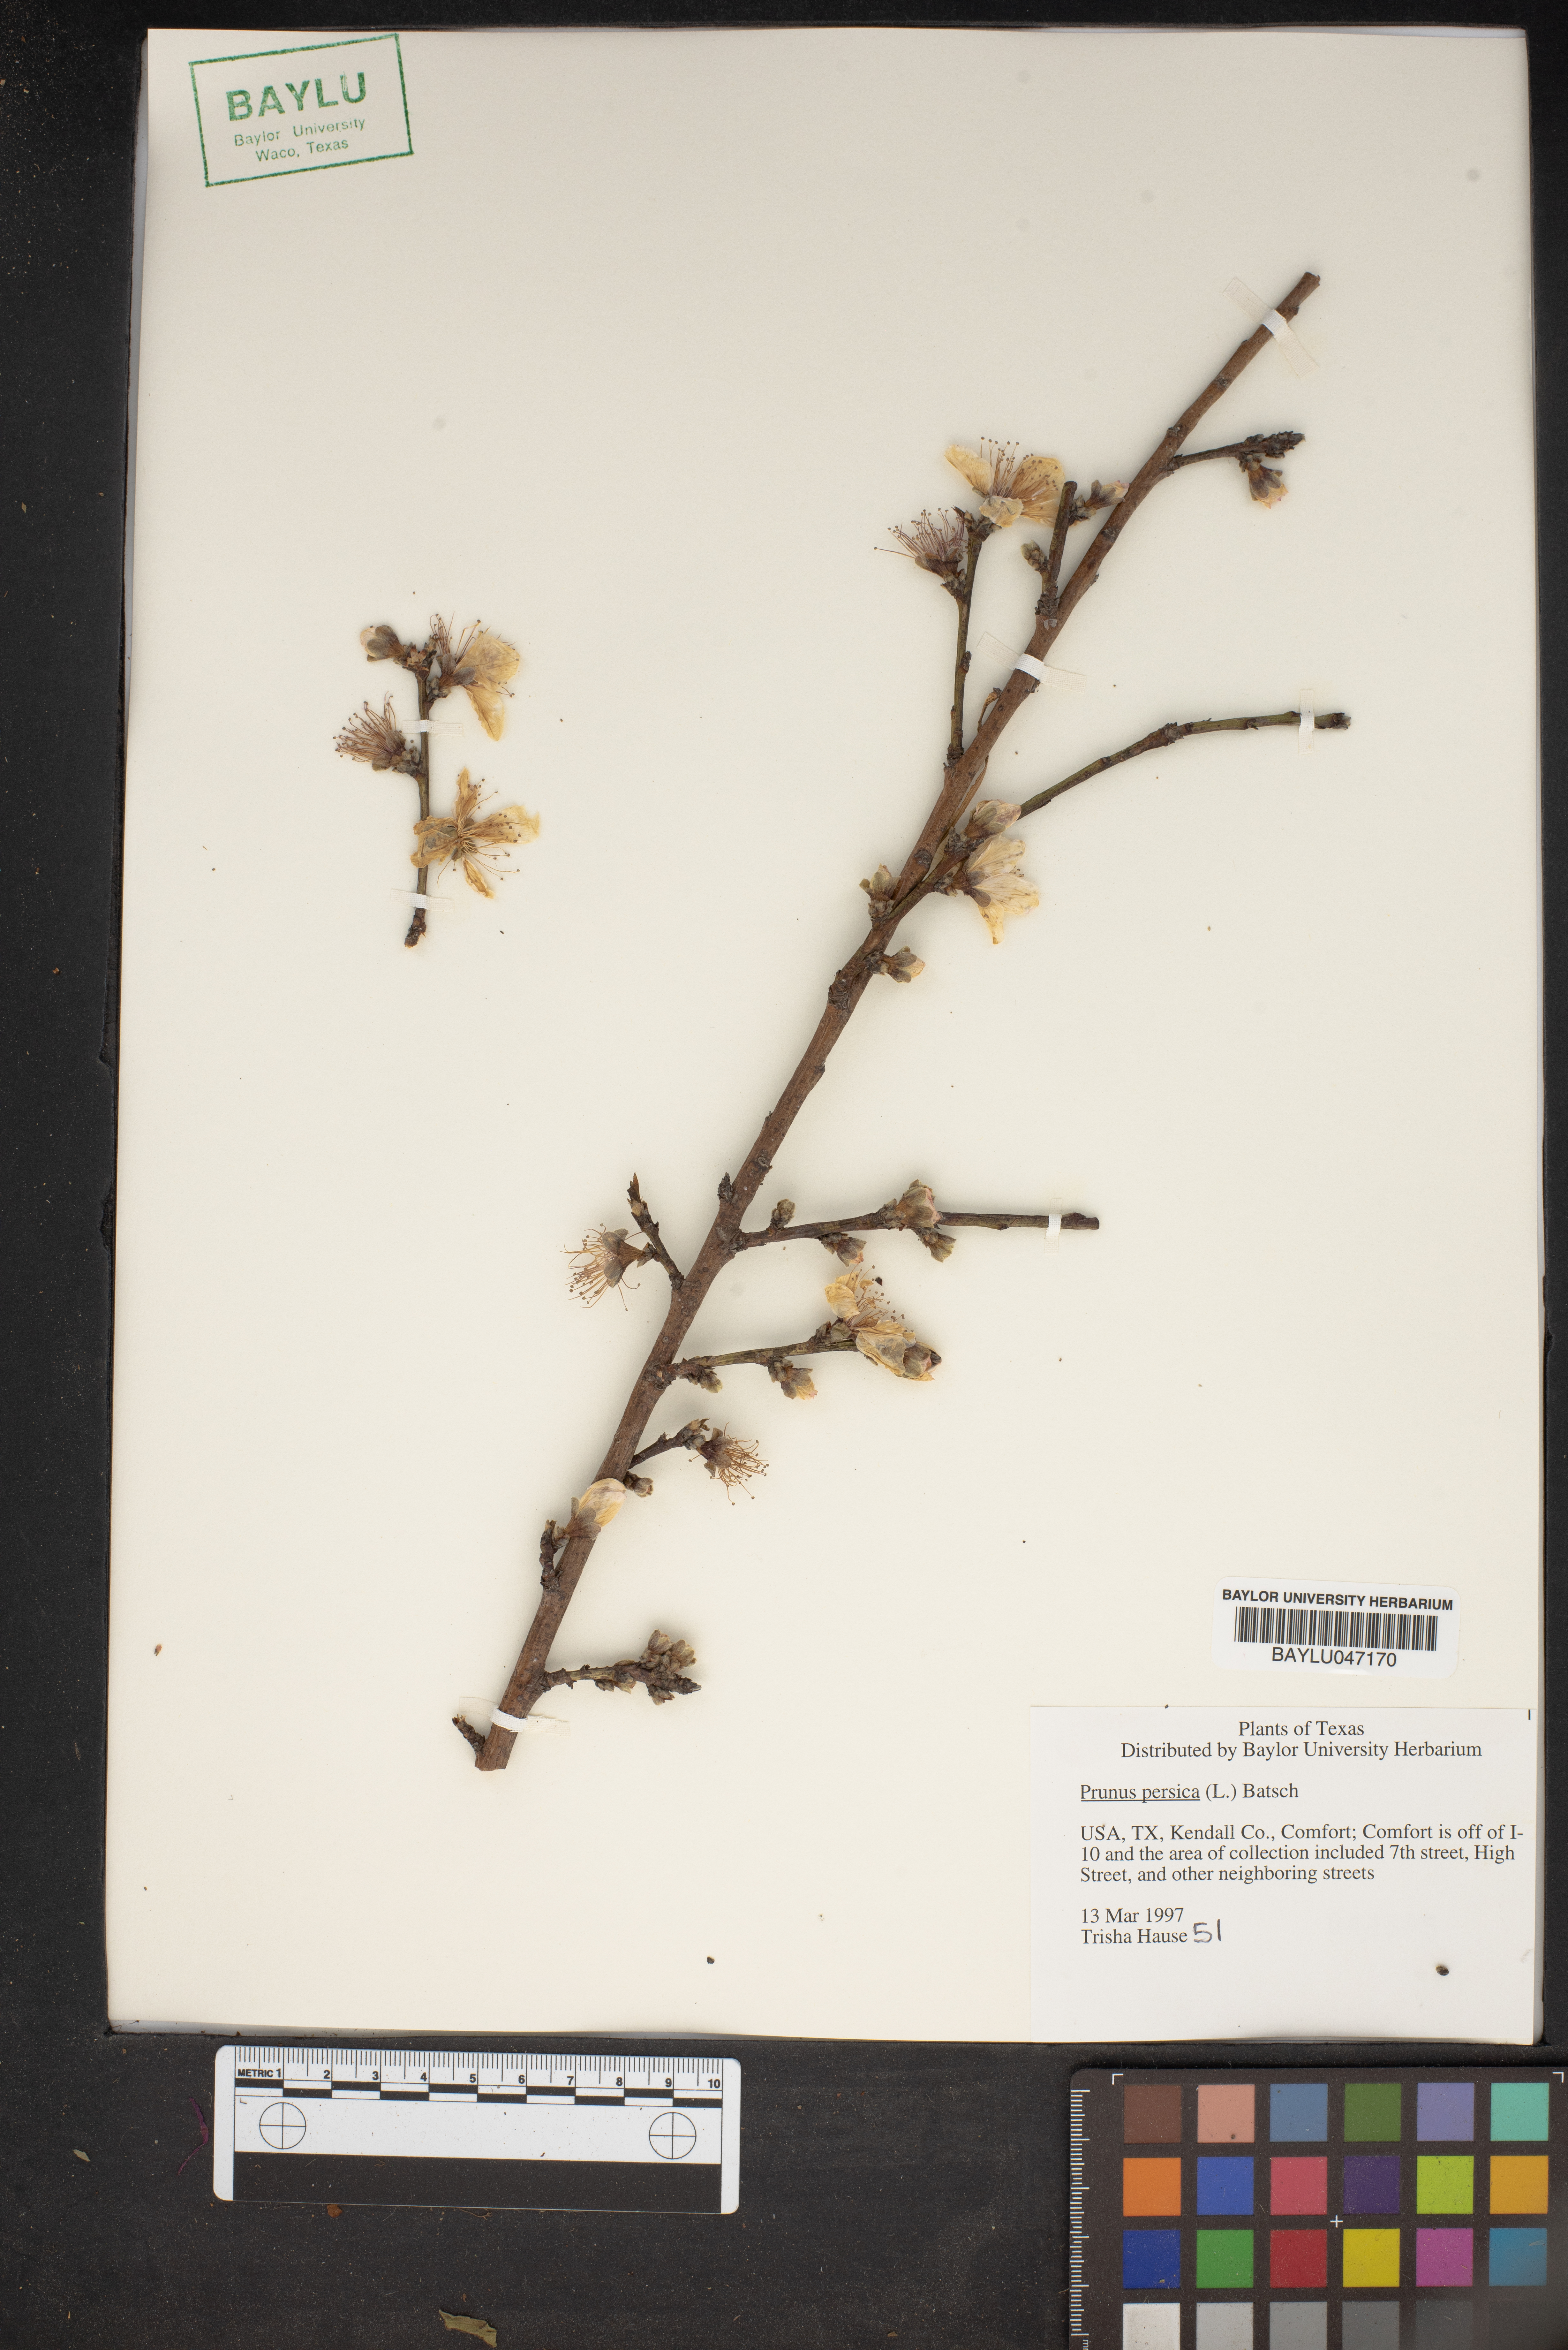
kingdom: Plantae
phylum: Tracheophyta
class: Magnoliopsida
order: Rosales
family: Rosaceae
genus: Prunus
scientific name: Prunus persica
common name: Peach
